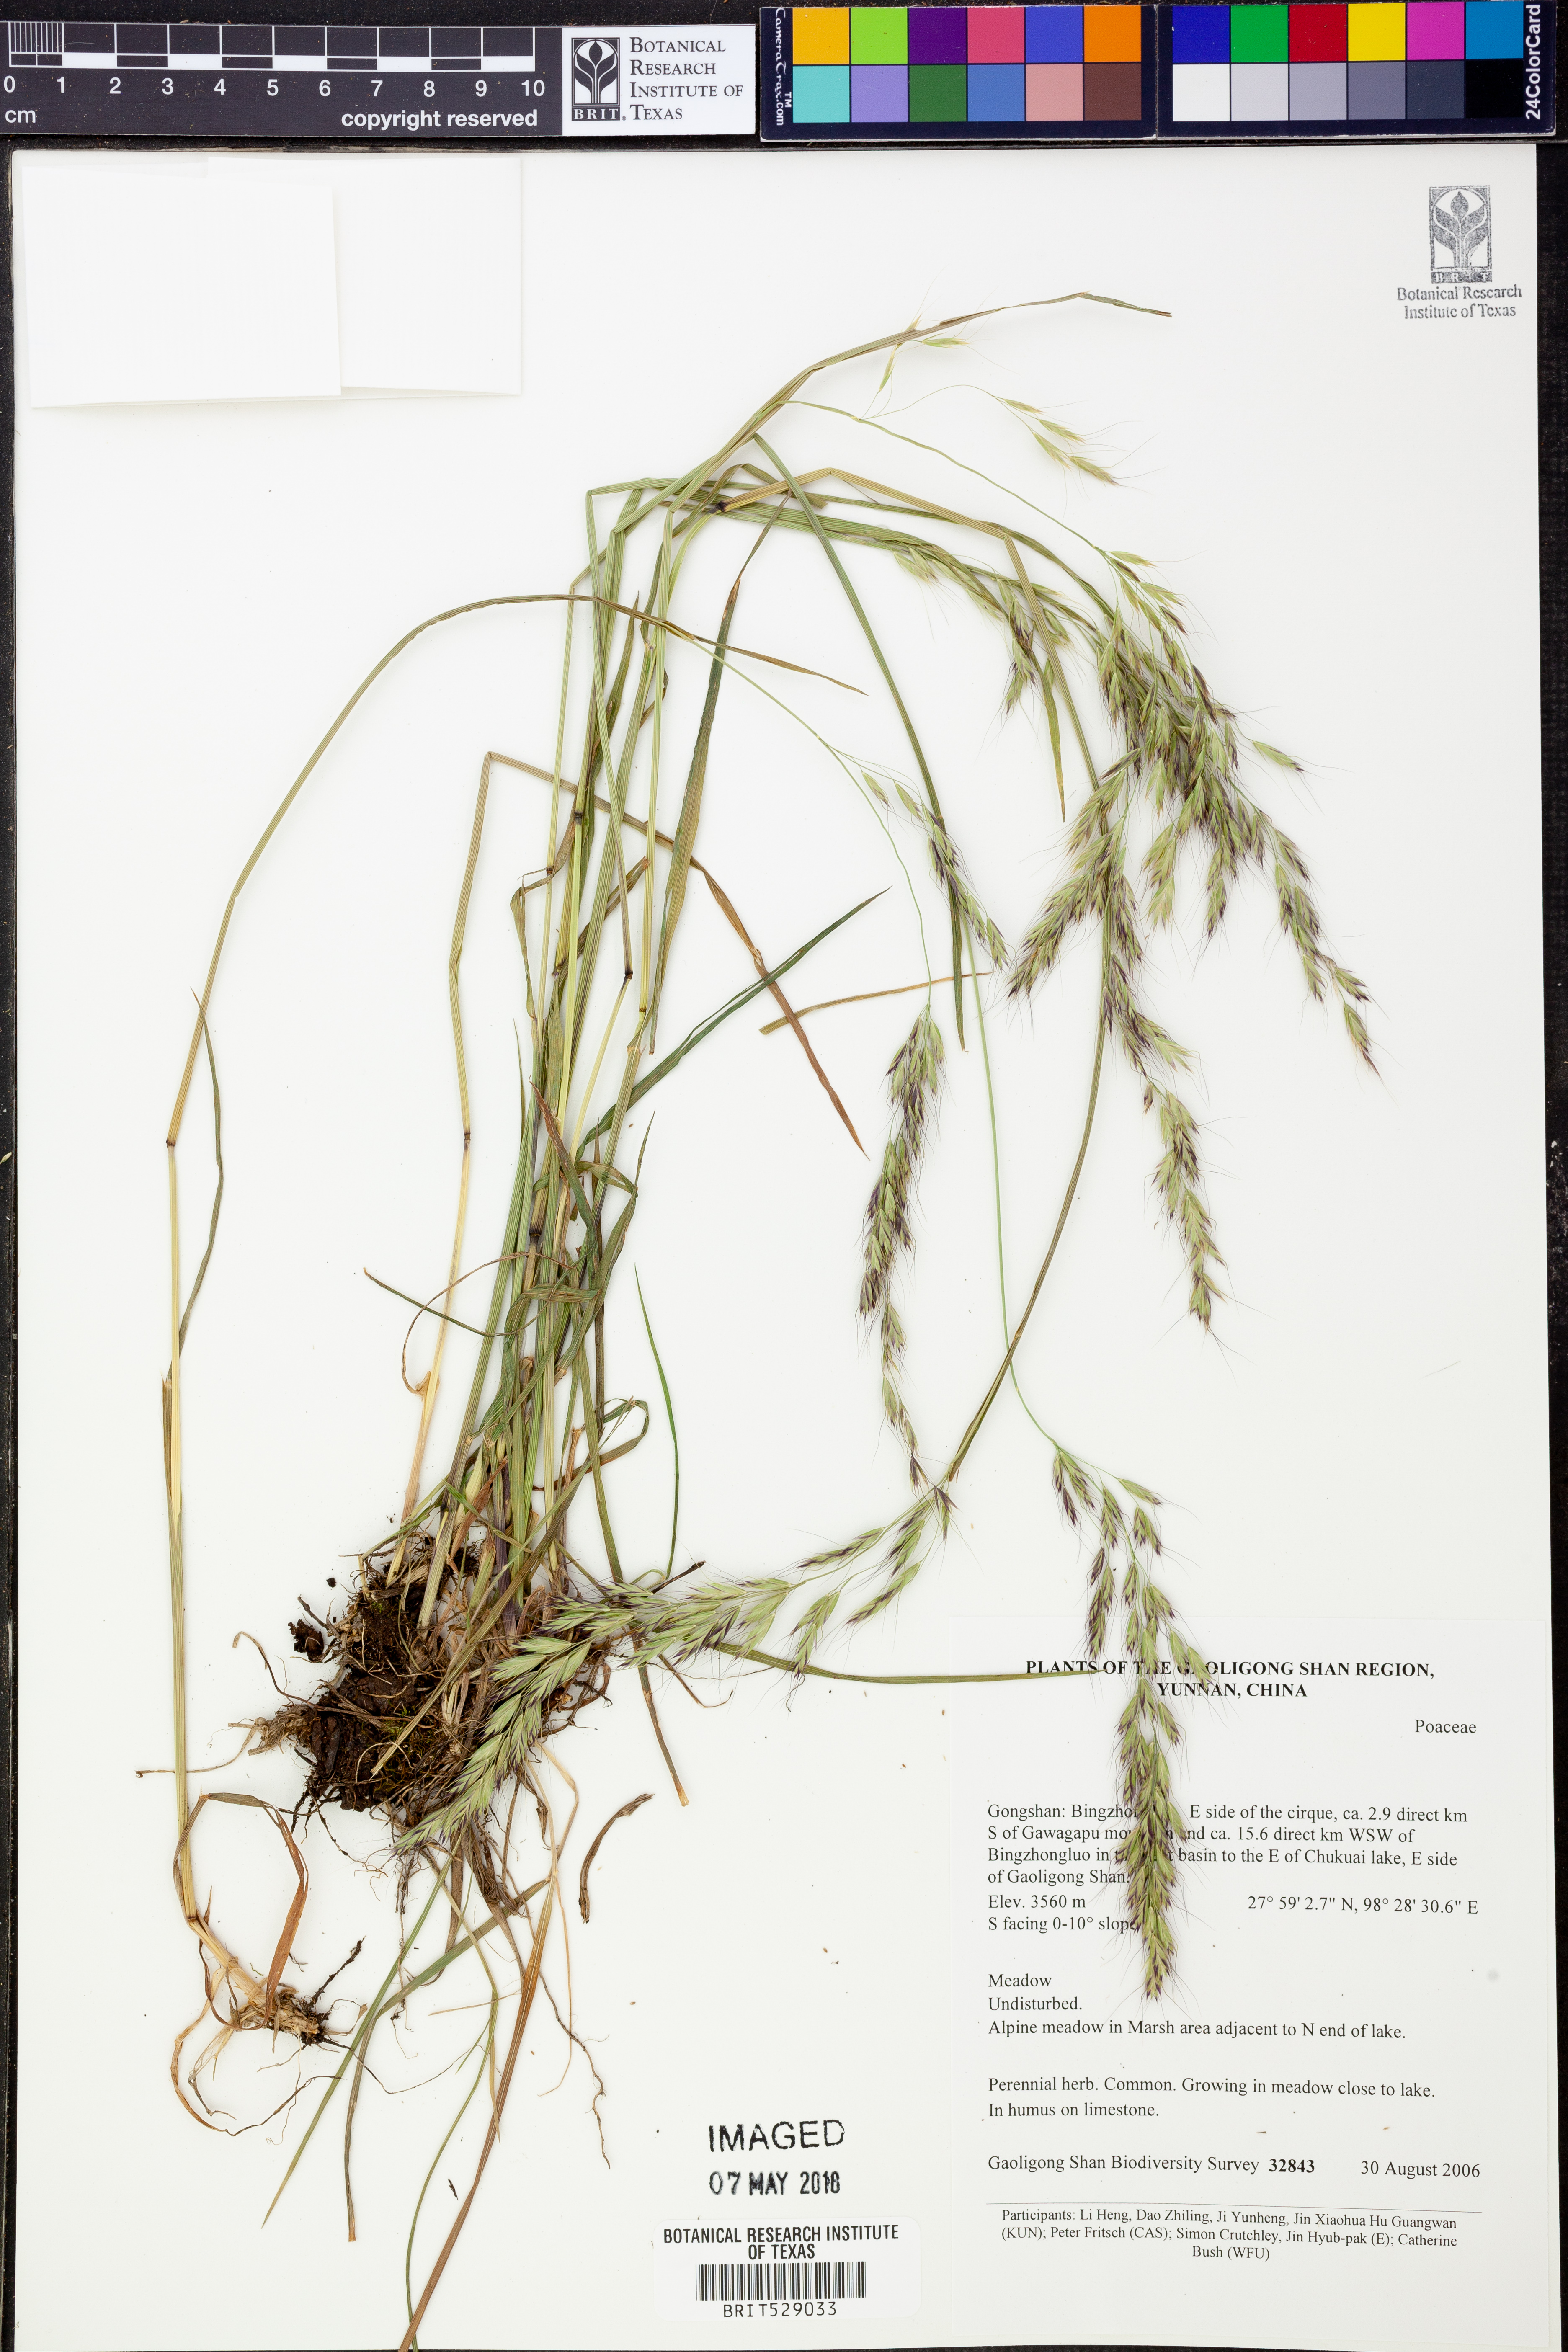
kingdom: Plantae
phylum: Tracheophyta
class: Liliopsida
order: Poales
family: Poaceae
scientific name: Poaceae
